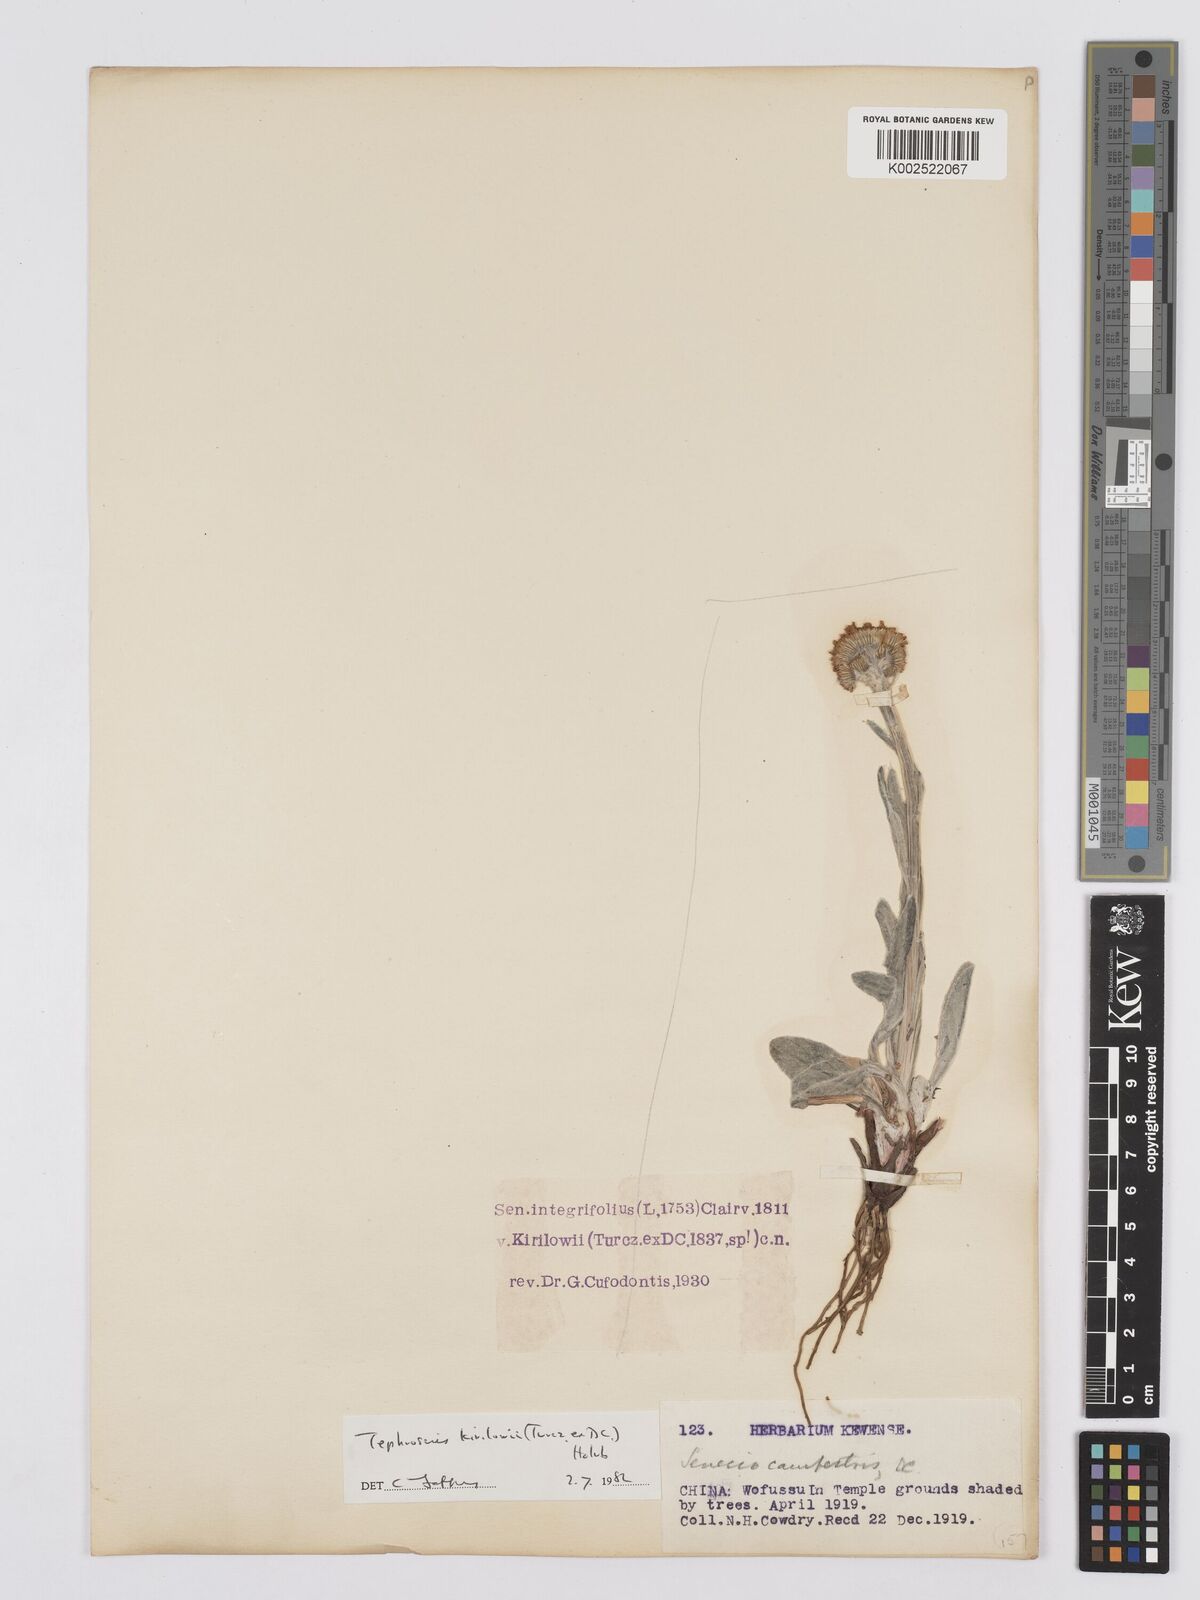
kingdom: Plantae
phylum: Tracheophyta
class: Magnoliopsida
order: Asterales
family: Asteraceae
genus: Tephroseris
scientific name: Tephroseris kirilowii
